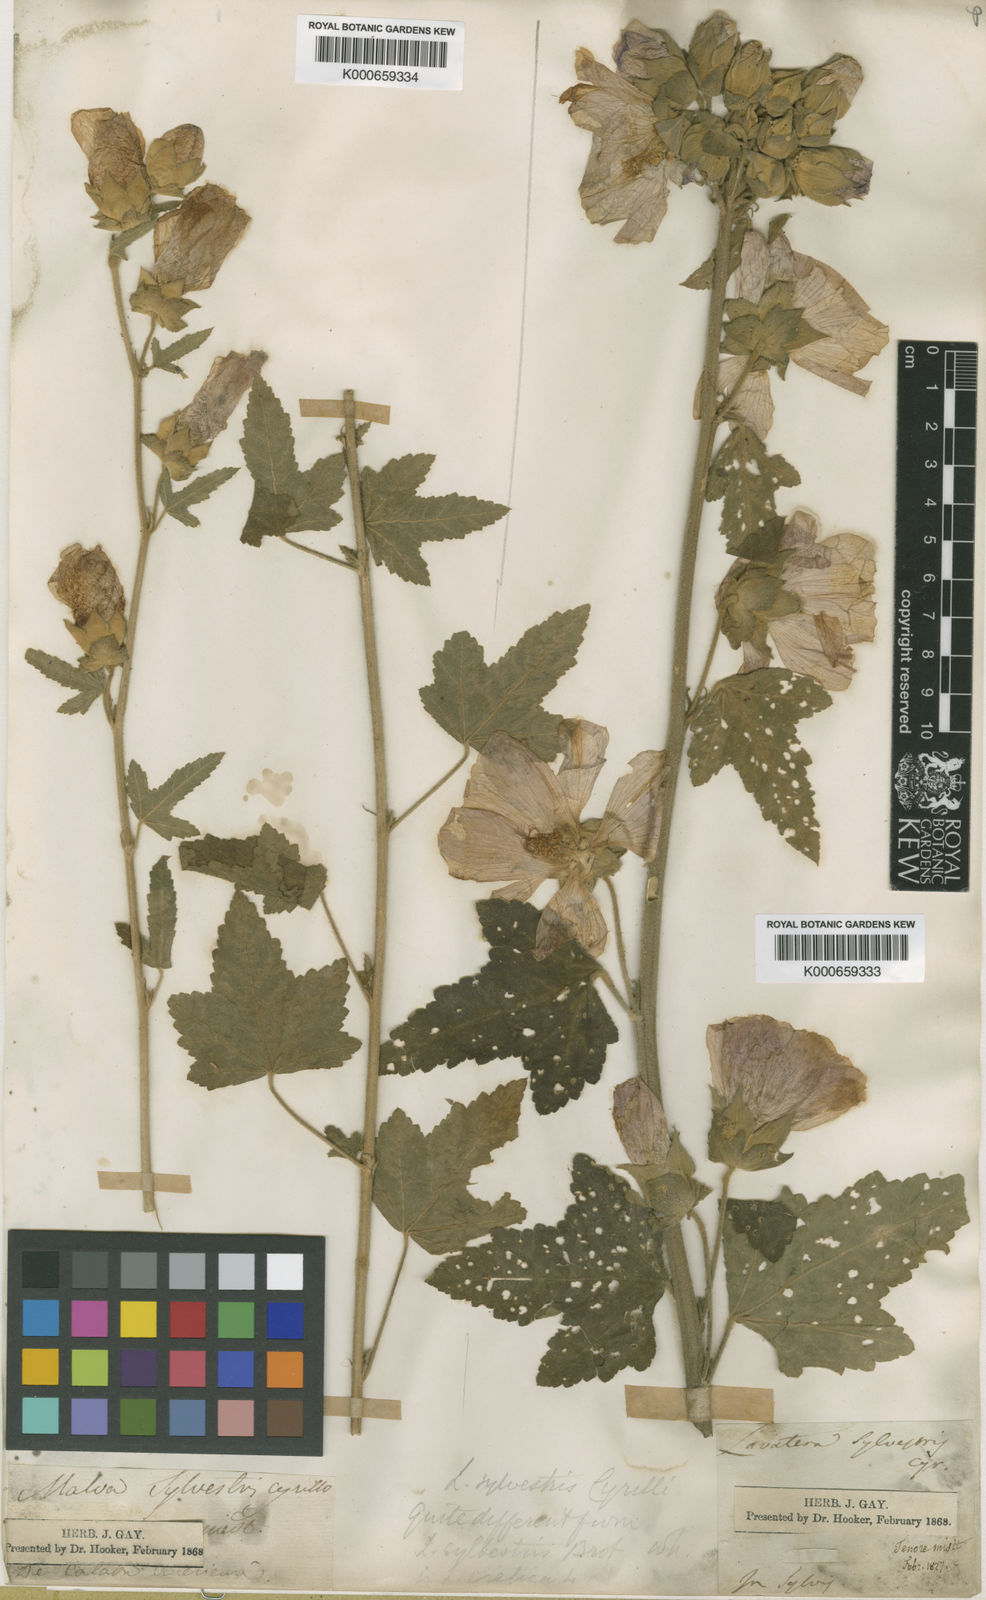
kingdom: Plantae
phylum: Tracheophyta
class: Magnoliopsida
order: Malvales
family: Malvaceae
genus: Malva
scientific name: Malva thuringiaca
